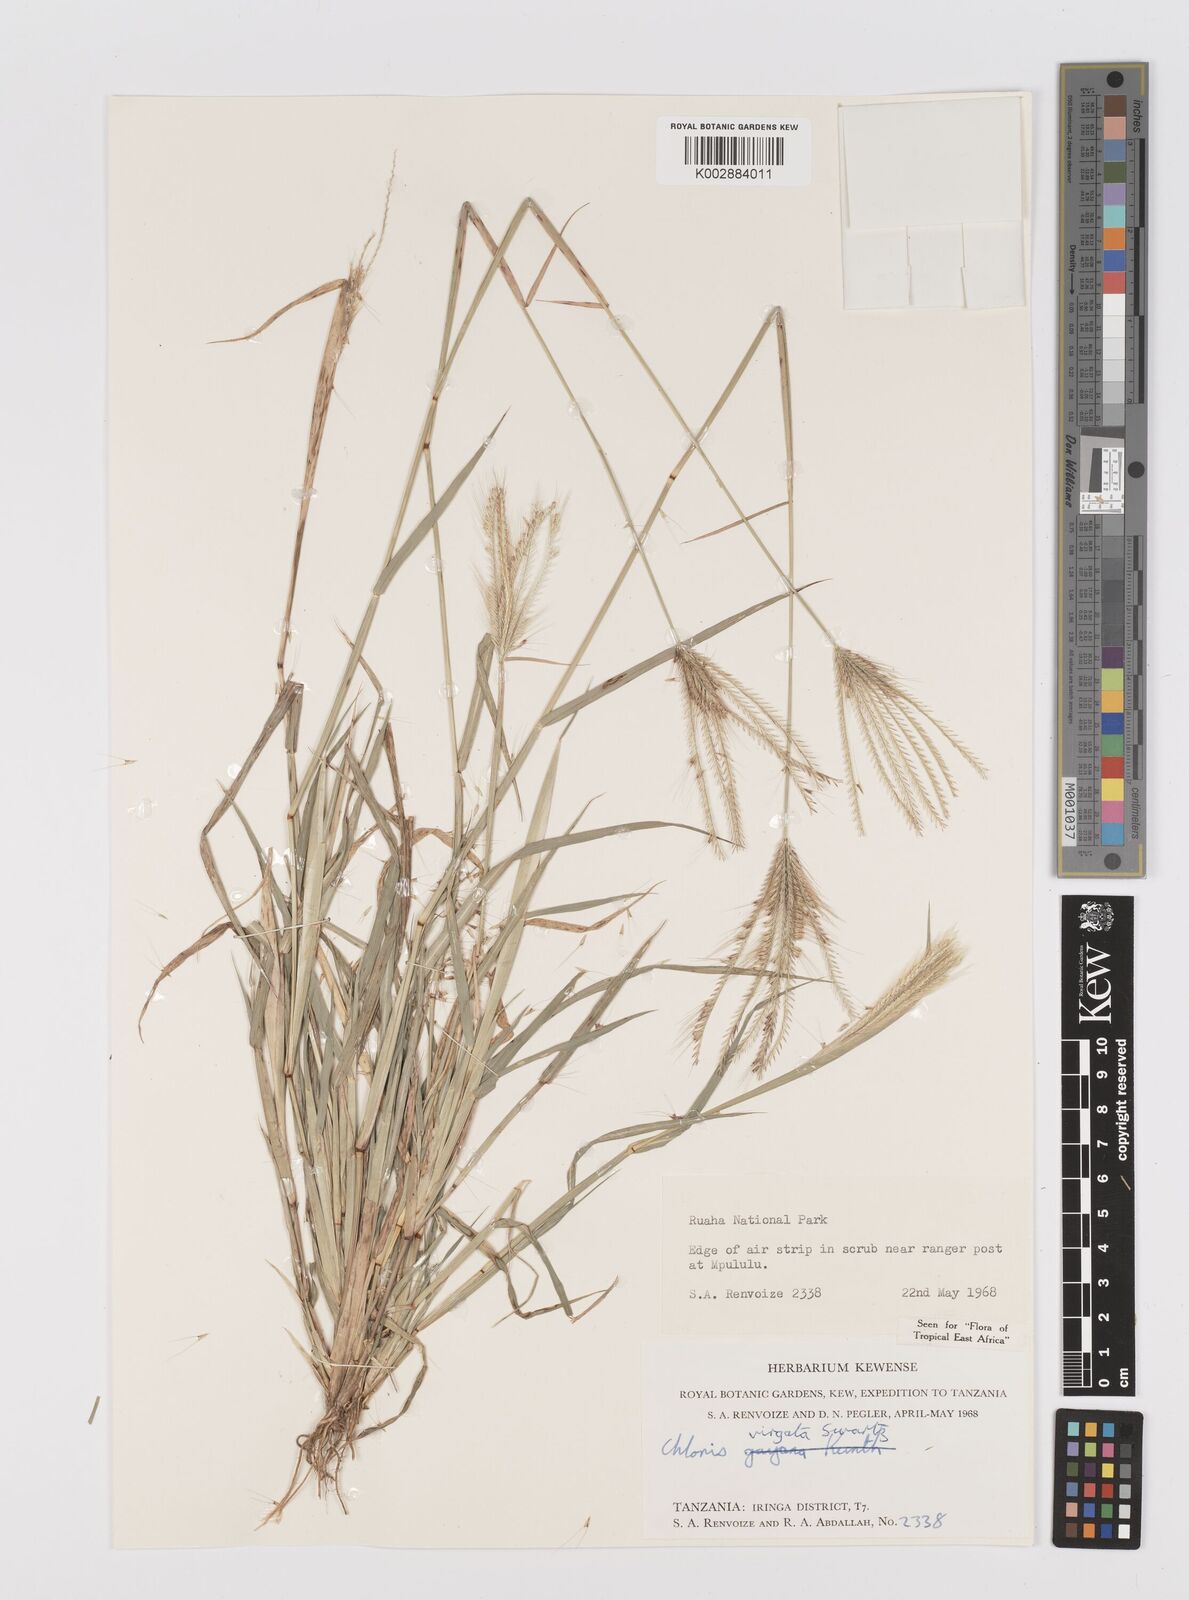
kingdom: Plantae
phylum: Tracheophyta
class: Liliopsida
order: Poales
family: Poaceae
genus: Chloris
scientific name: Chloris virgata
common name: Feathery rhodes-grass
